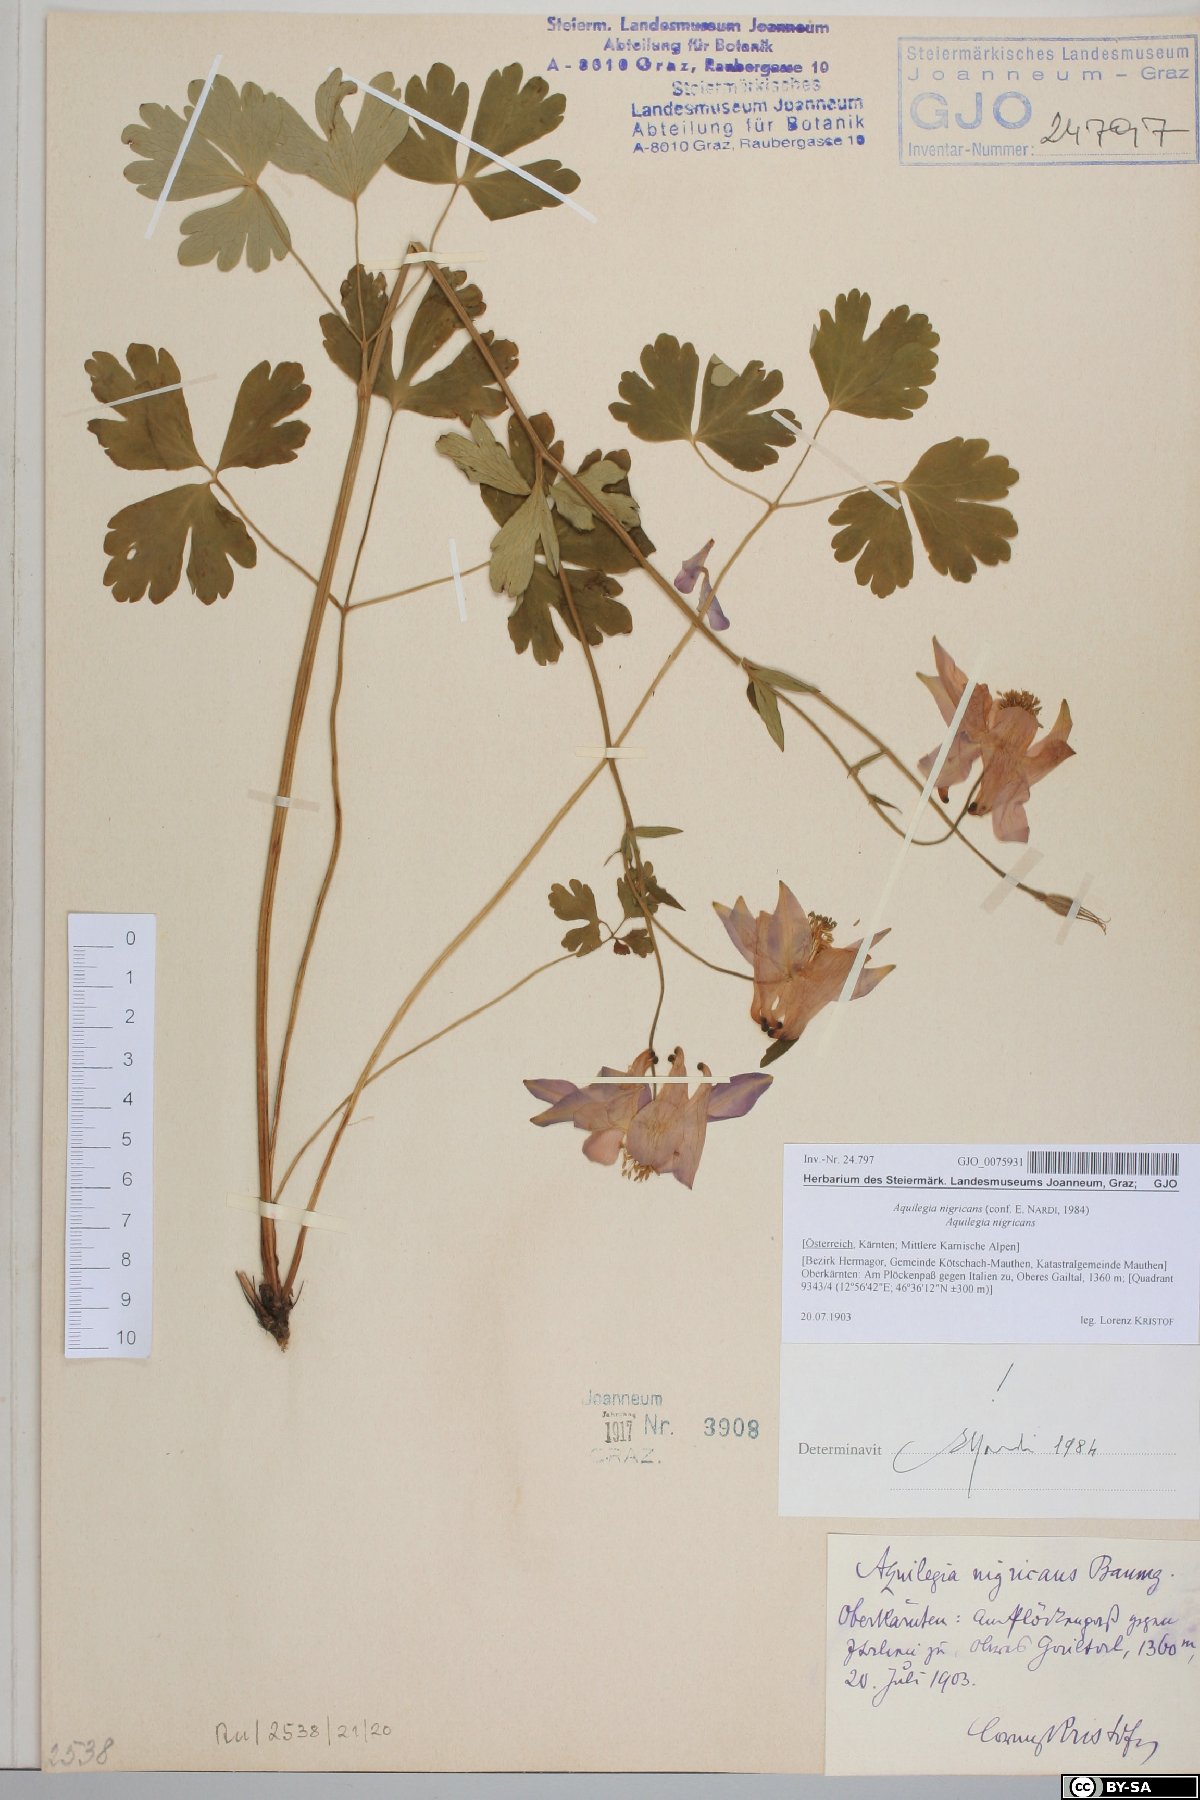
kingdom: Plantae
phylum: Tracheophyta
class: Magnoliopsida
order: Ranunculales
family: Ranunculaceae
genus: Aquilegia
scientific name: Aquilegia nigricans
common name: Bulgarian columbine
